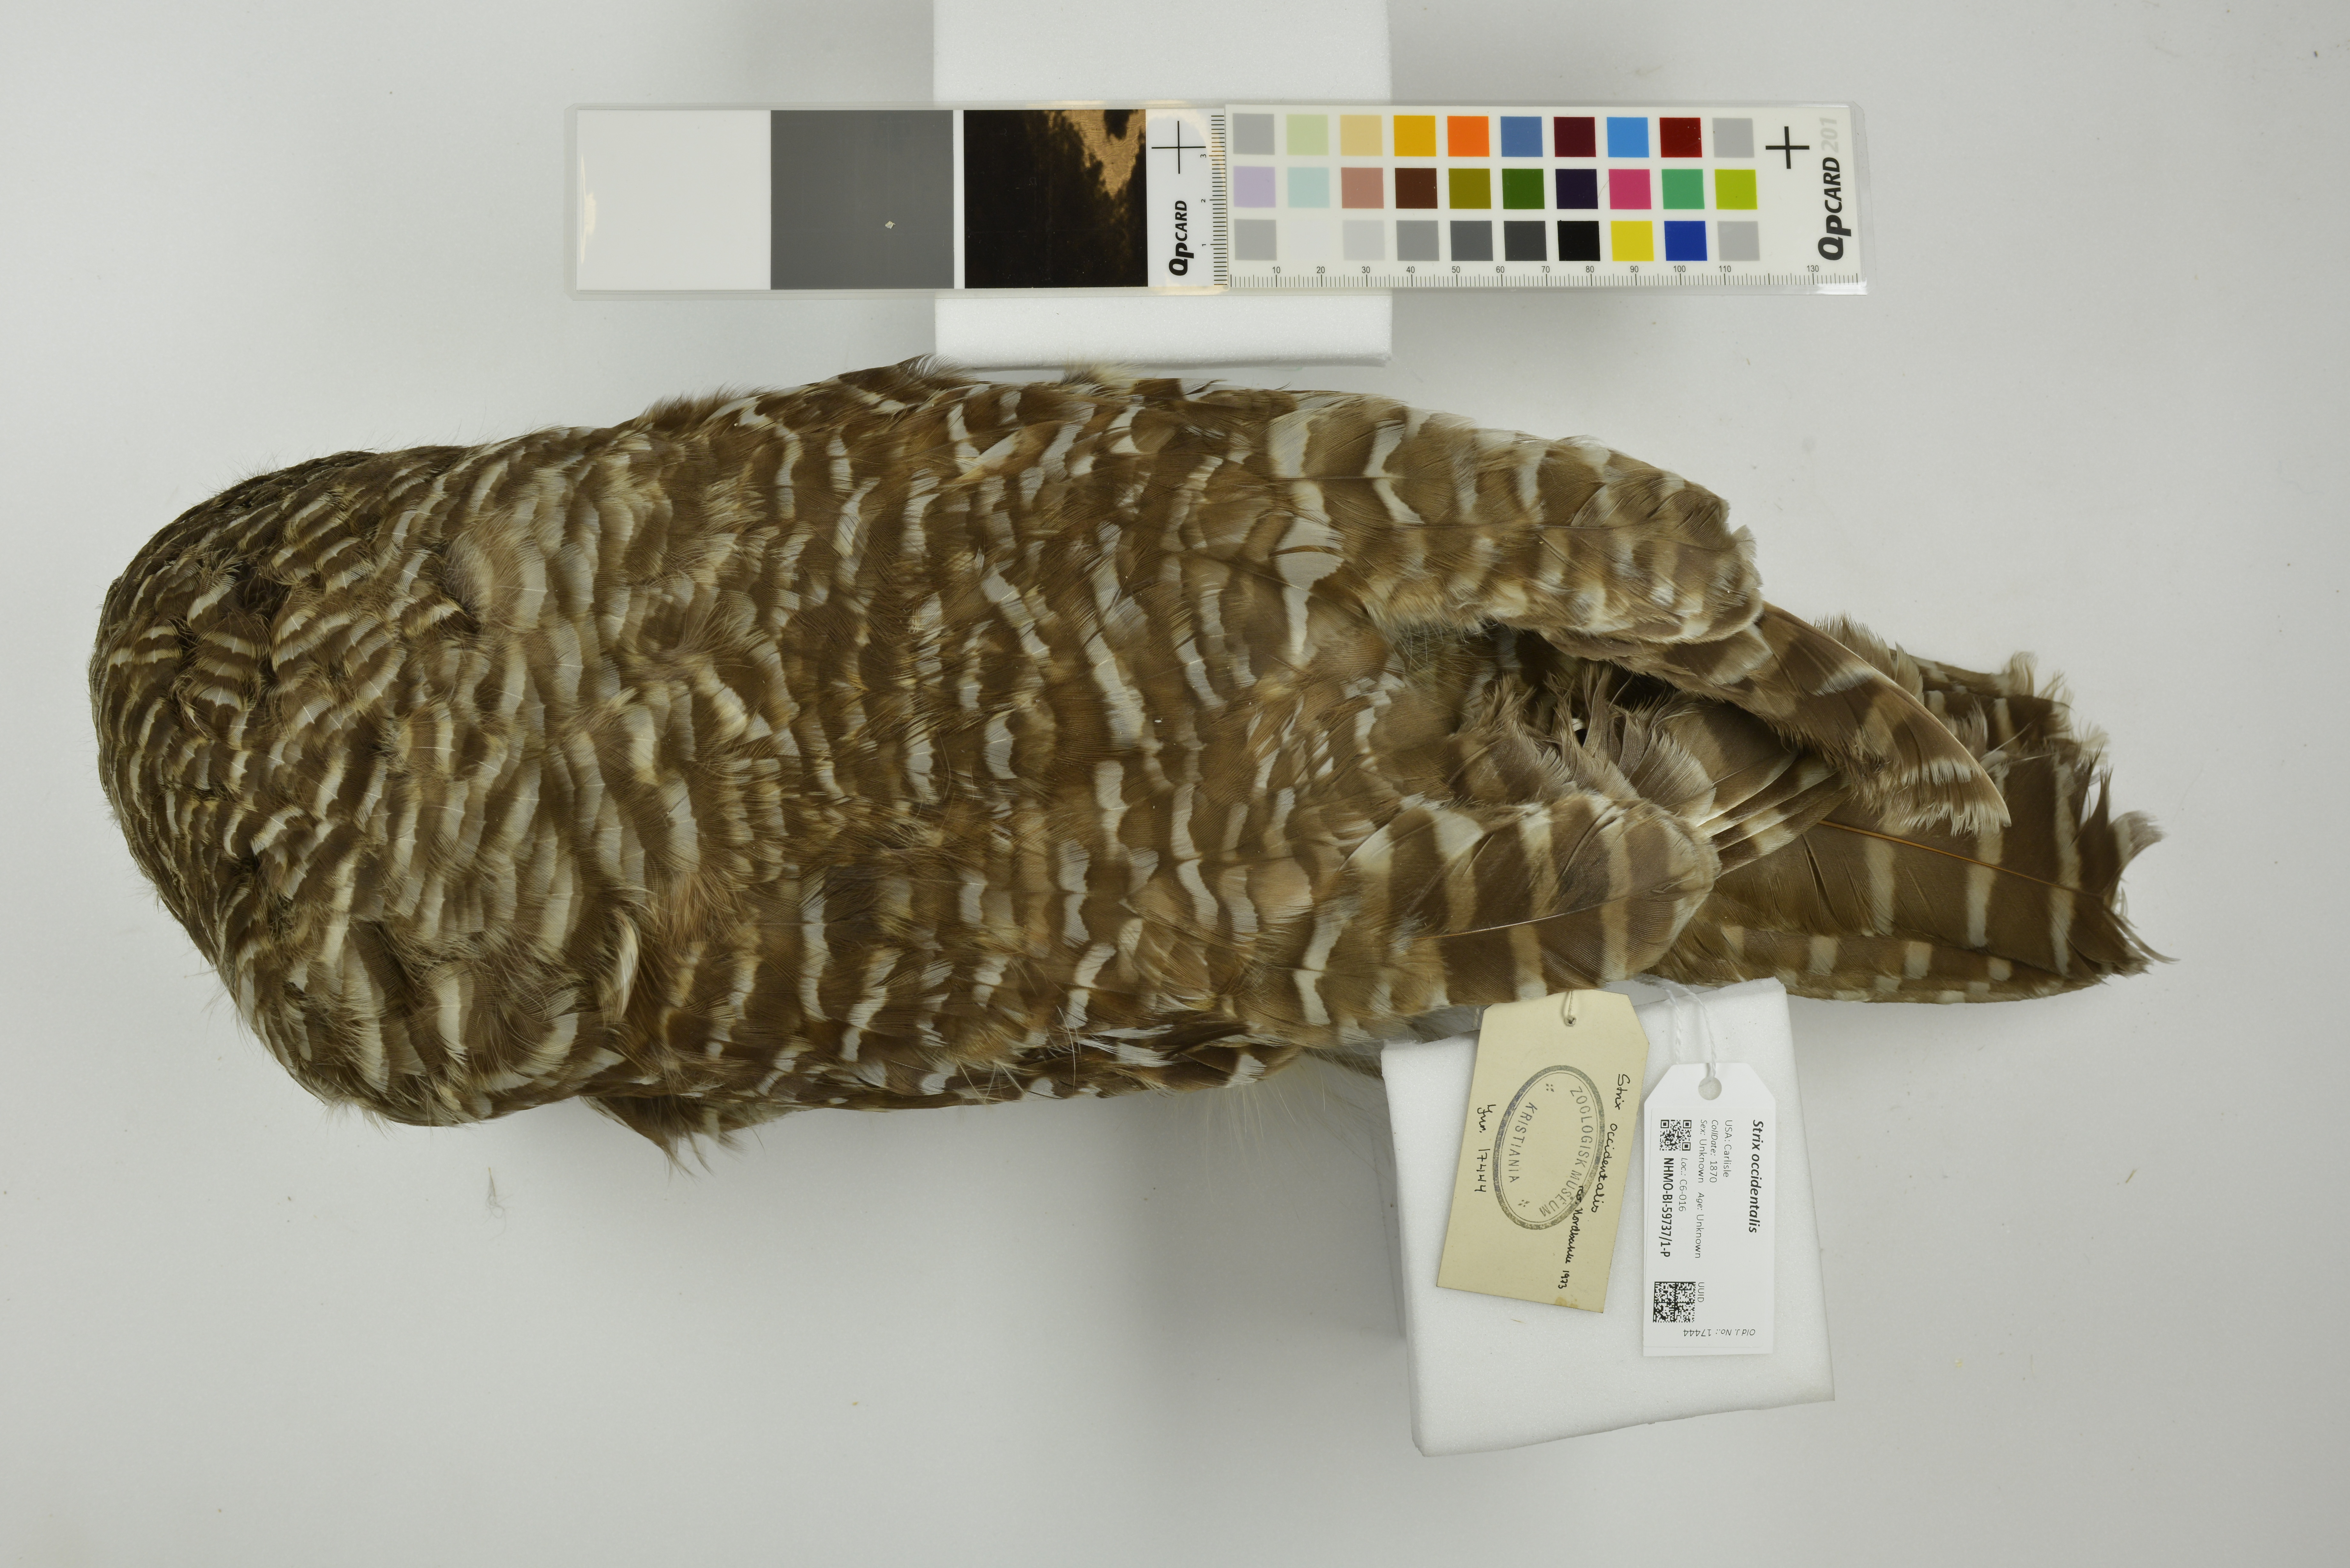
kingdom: Animalia
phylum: Chordata
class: Aves
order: Strigiformes
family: Strigidae
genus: Strix
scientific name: Strix occidentalis
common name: Spotted owl
